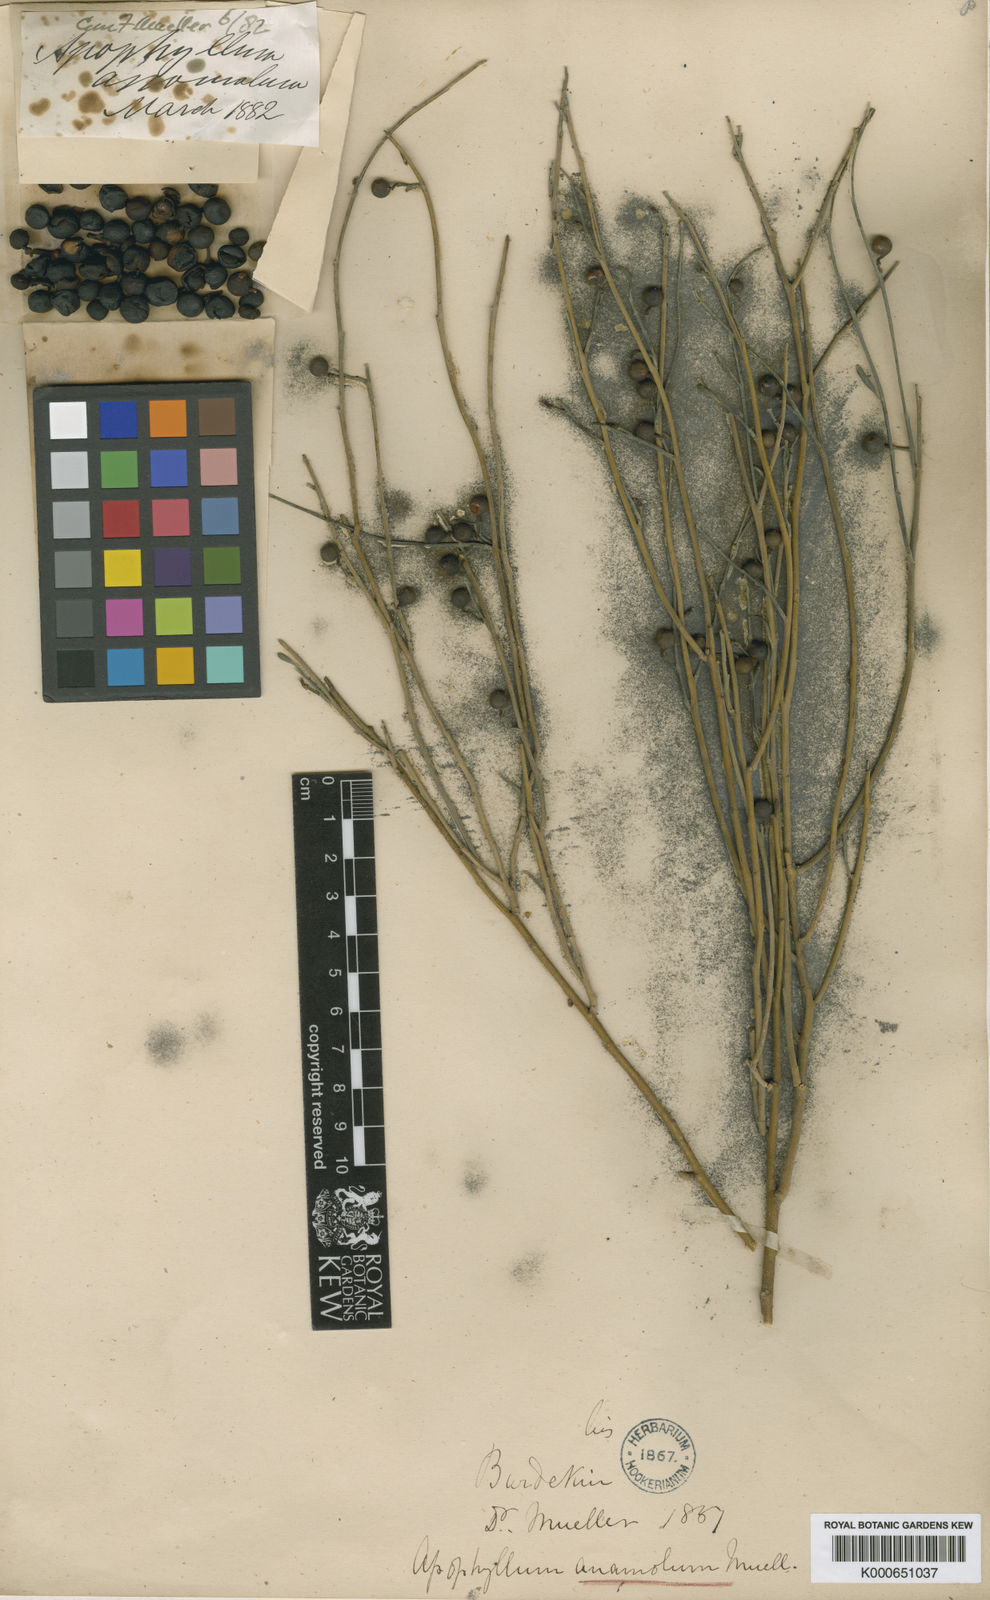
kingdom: Plantae
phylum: Tracheophyta
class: Magnoliopsida
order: Brassicales
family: Capparaceae
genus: Apophyllum
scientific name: Apophyllum anomalum
